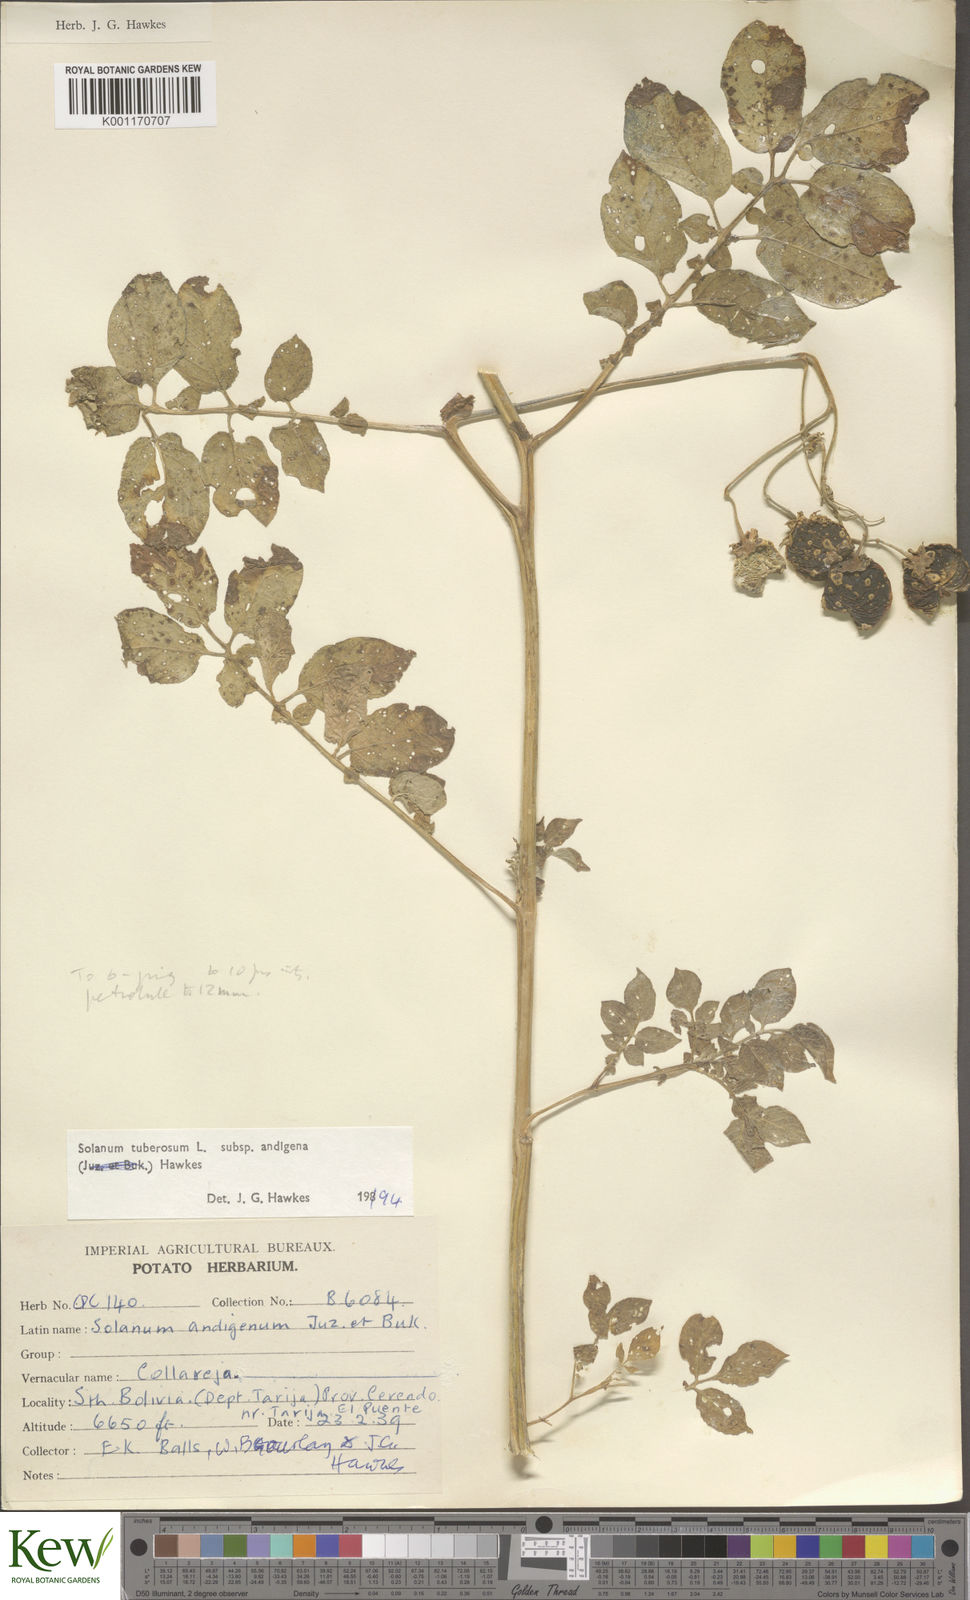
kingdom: Plantae
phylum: Tracheophyta
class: Magnoliopsida
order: Solanales
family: Solanaceae
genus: Solanum
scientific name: Solanum tuberosum
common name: Potato
